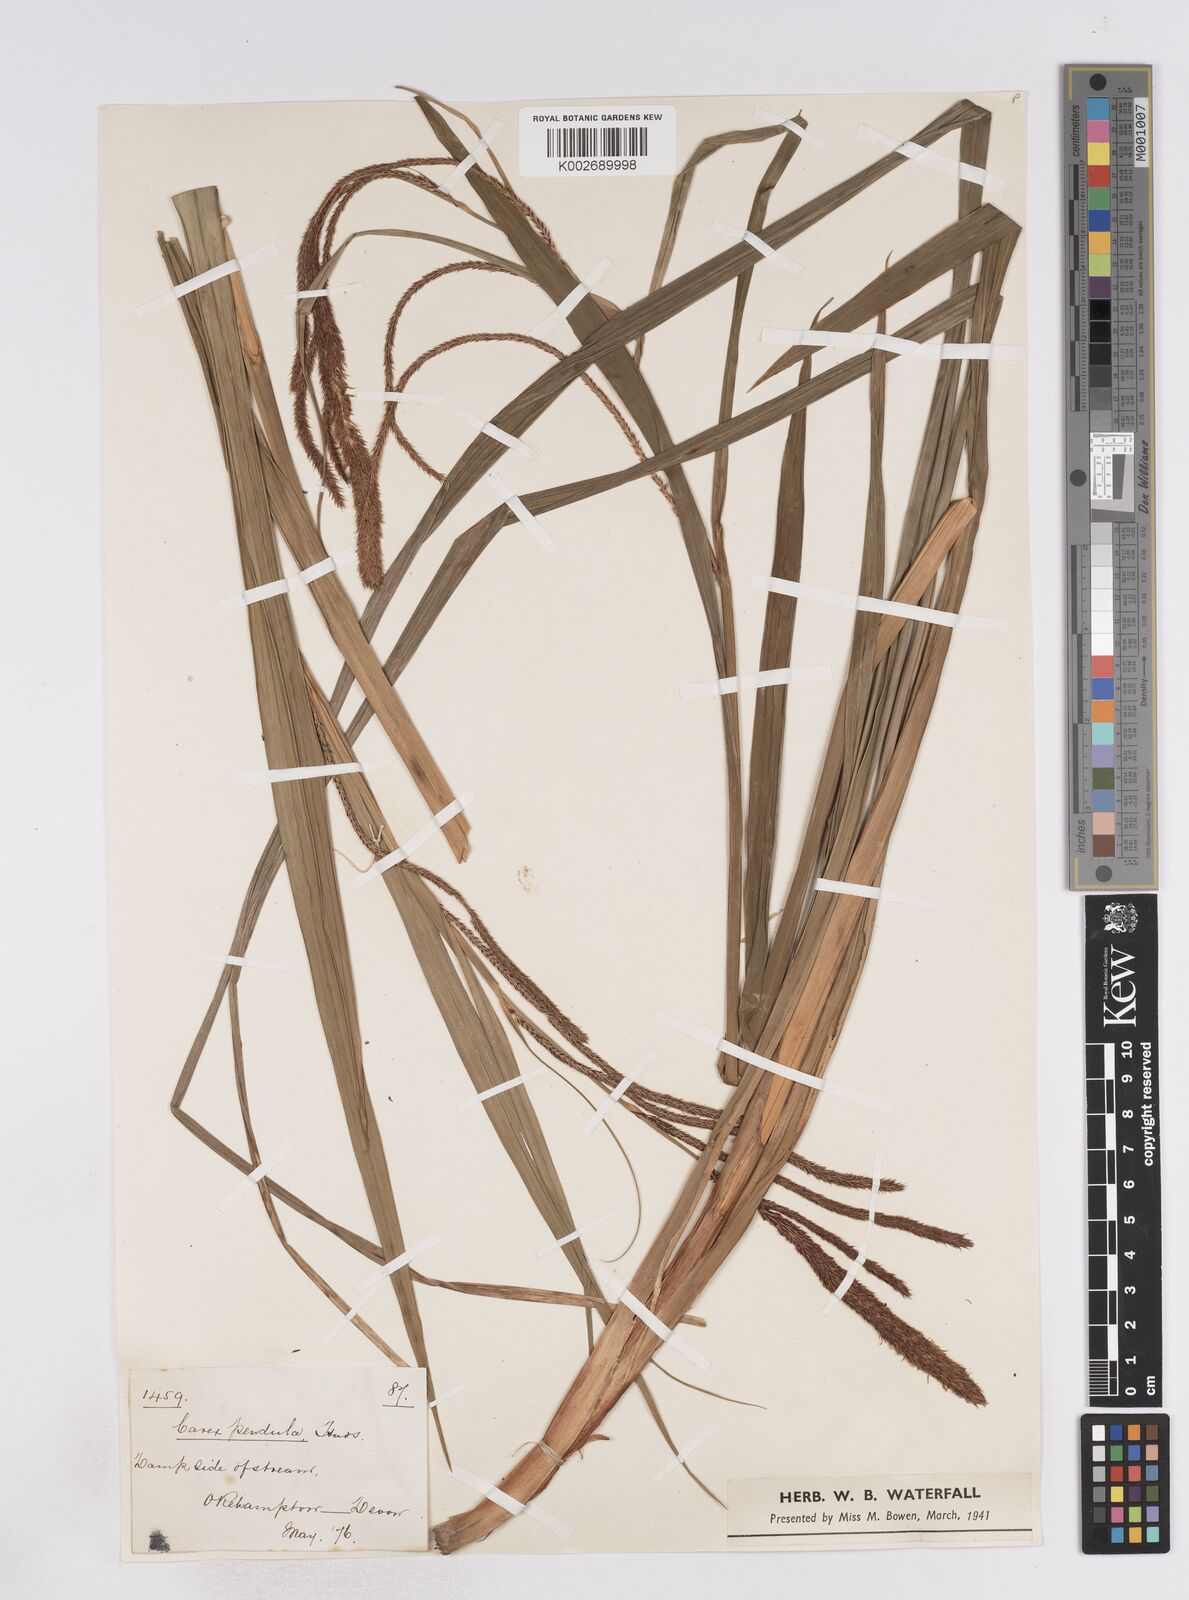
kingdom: Plantae
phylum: Tracheophyta
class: Liliopsida
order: Poales
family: Cyperaceae
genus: Carex
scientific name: Carex pendula
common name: Pendulous sedge
